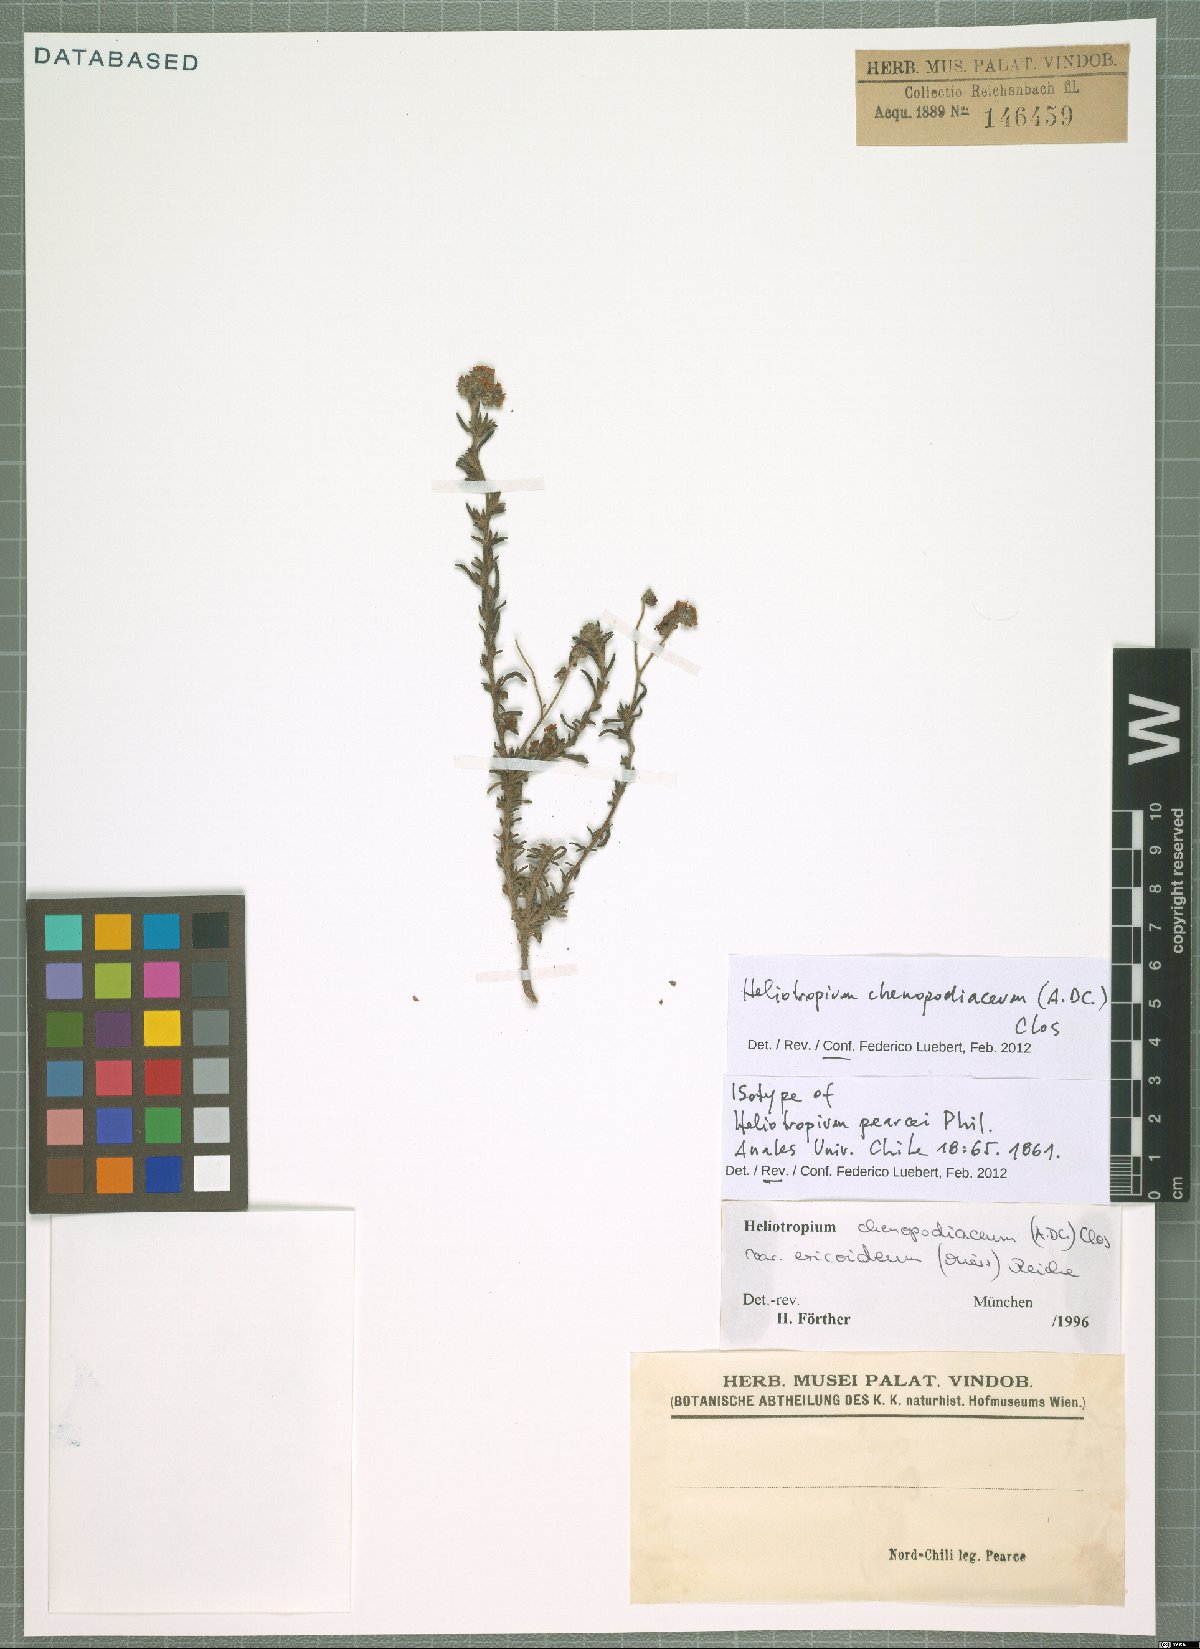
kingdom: Plantae
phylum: Tracheophyta
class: Magnoliopsida
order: Boraginales
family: Heliotropiaceae
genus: Heliotropium
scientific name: Heliotropium chenopodiaceum
